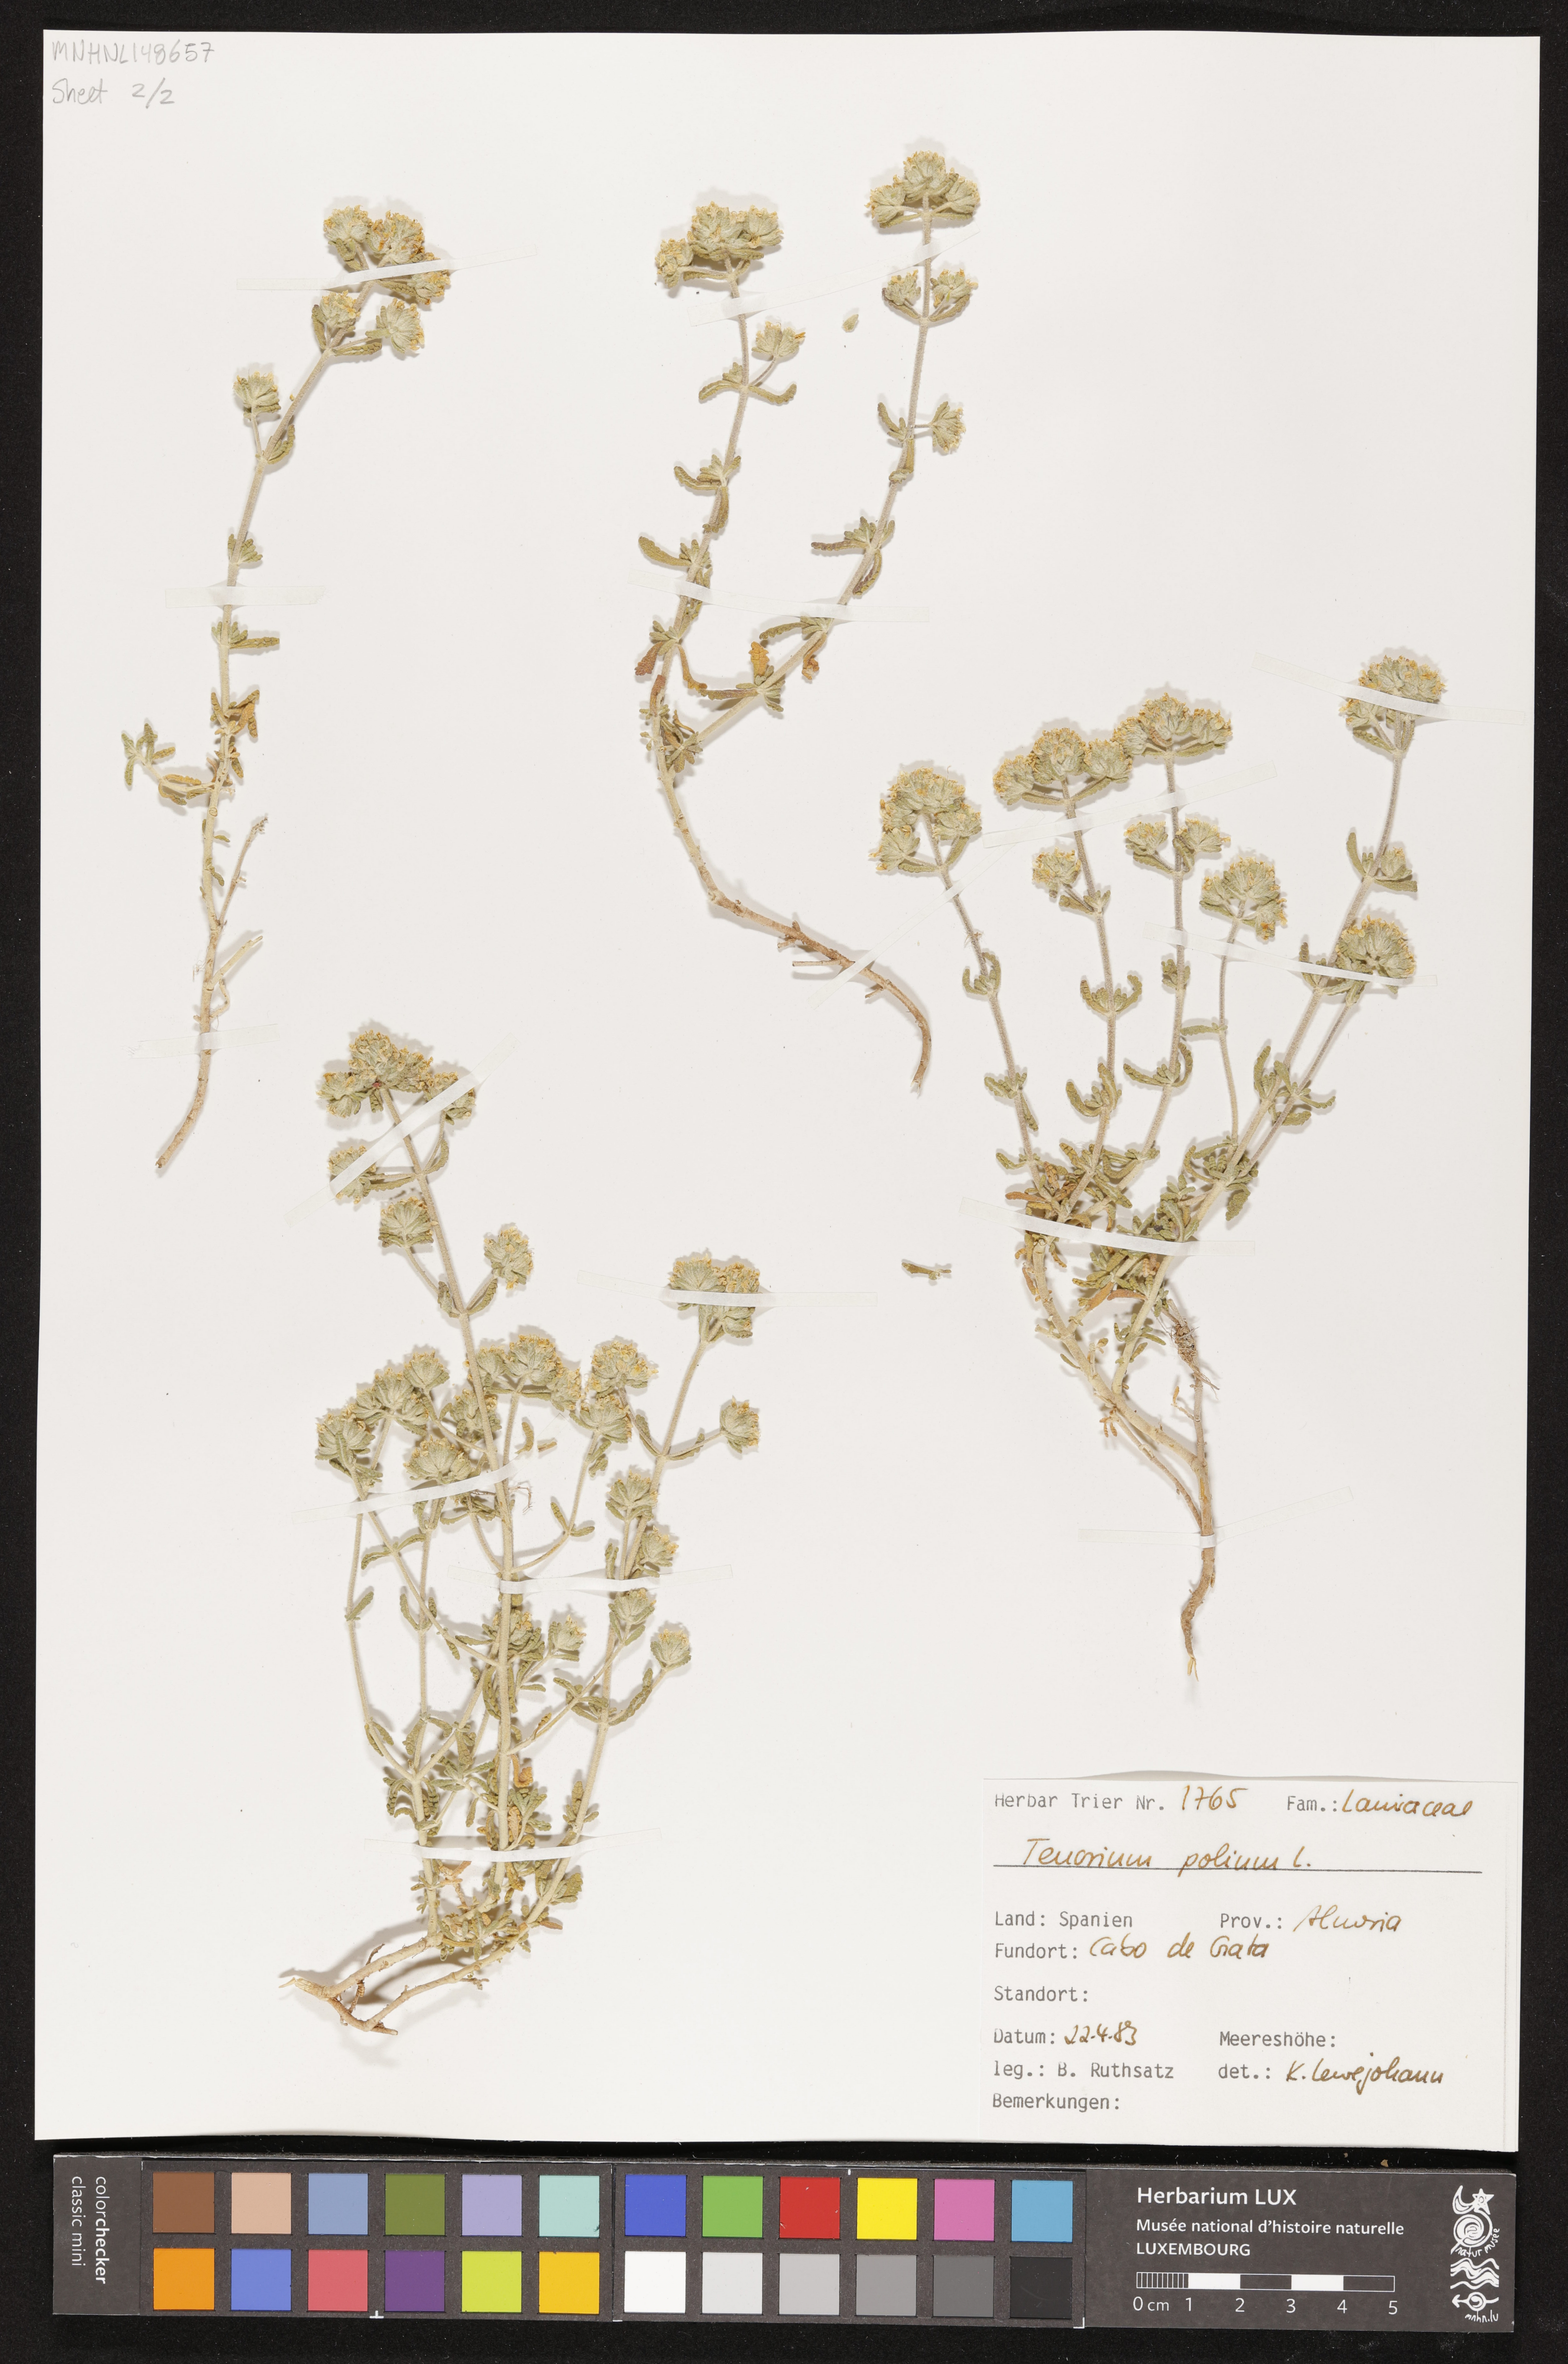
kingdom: Plantae
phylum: Tracheophyta
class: Magnoliopsida
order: Lamiales
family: Lamiaceae
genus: Teucrium
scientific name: Teucrium polium
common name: Poley
